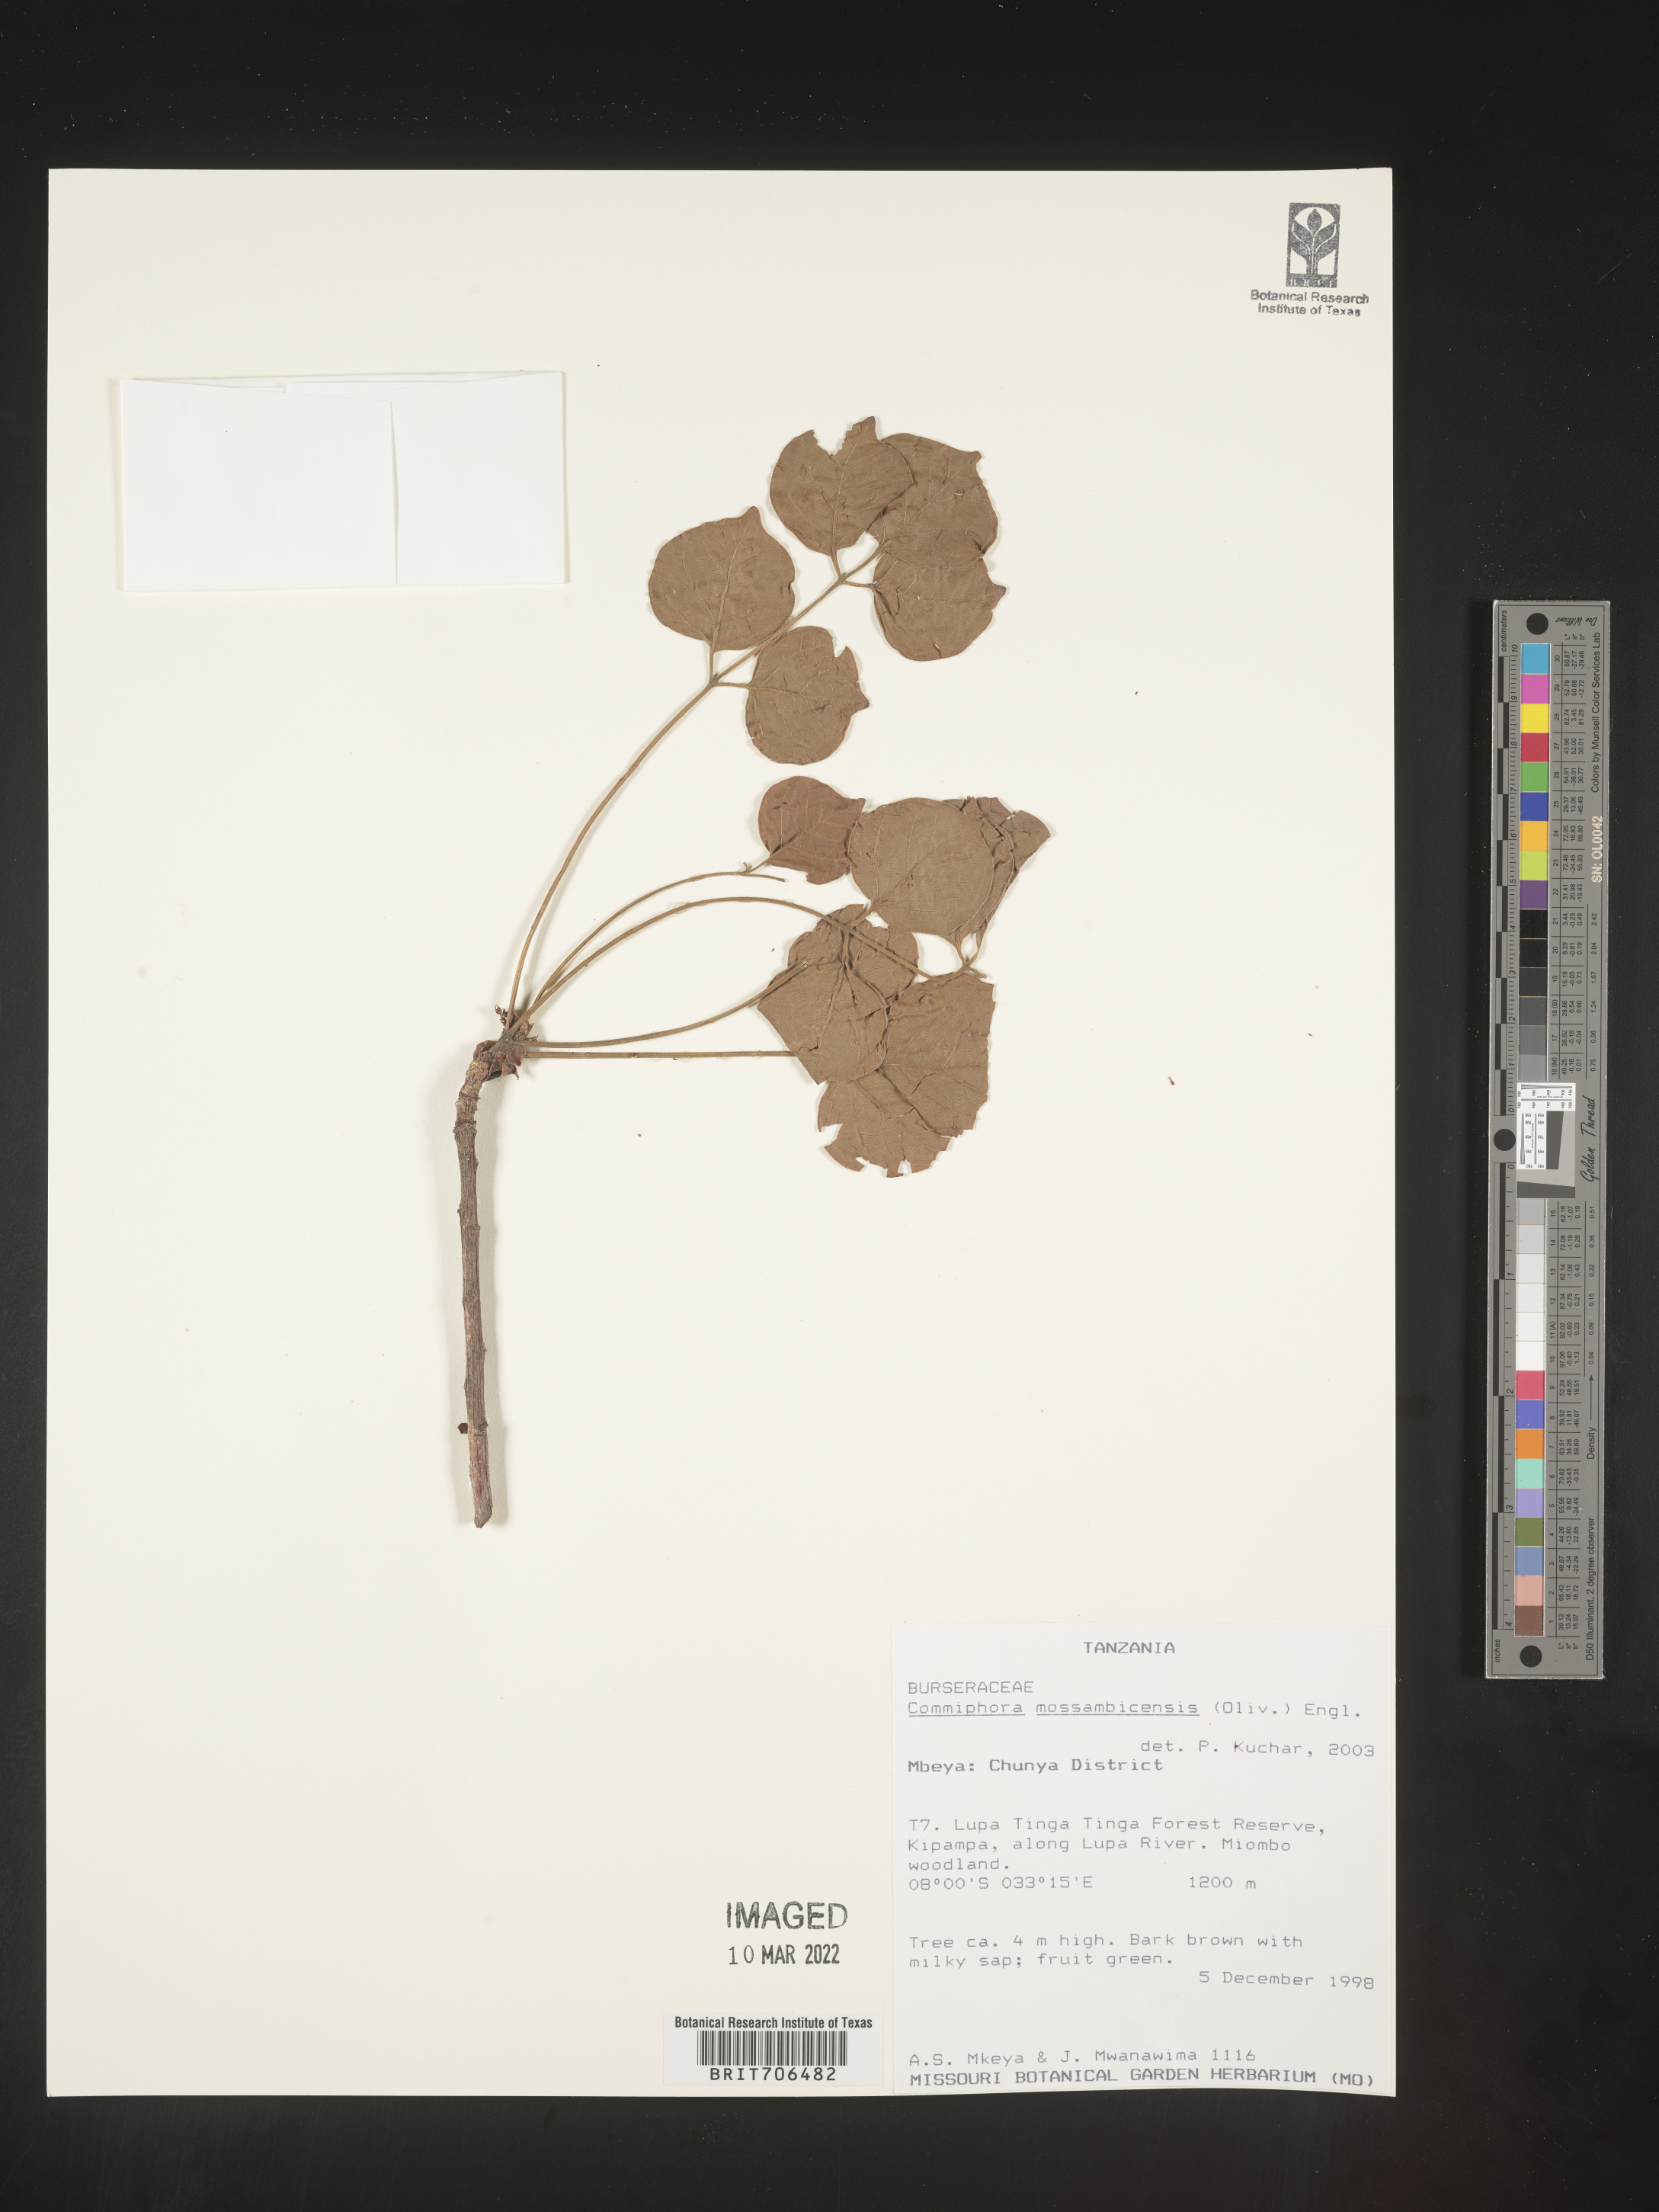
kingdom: Plantae
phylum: Tracheophyta
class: Magnoliopsida
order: Sapindales
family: Burseraceae
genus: Commiphora
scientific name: Commiphora
